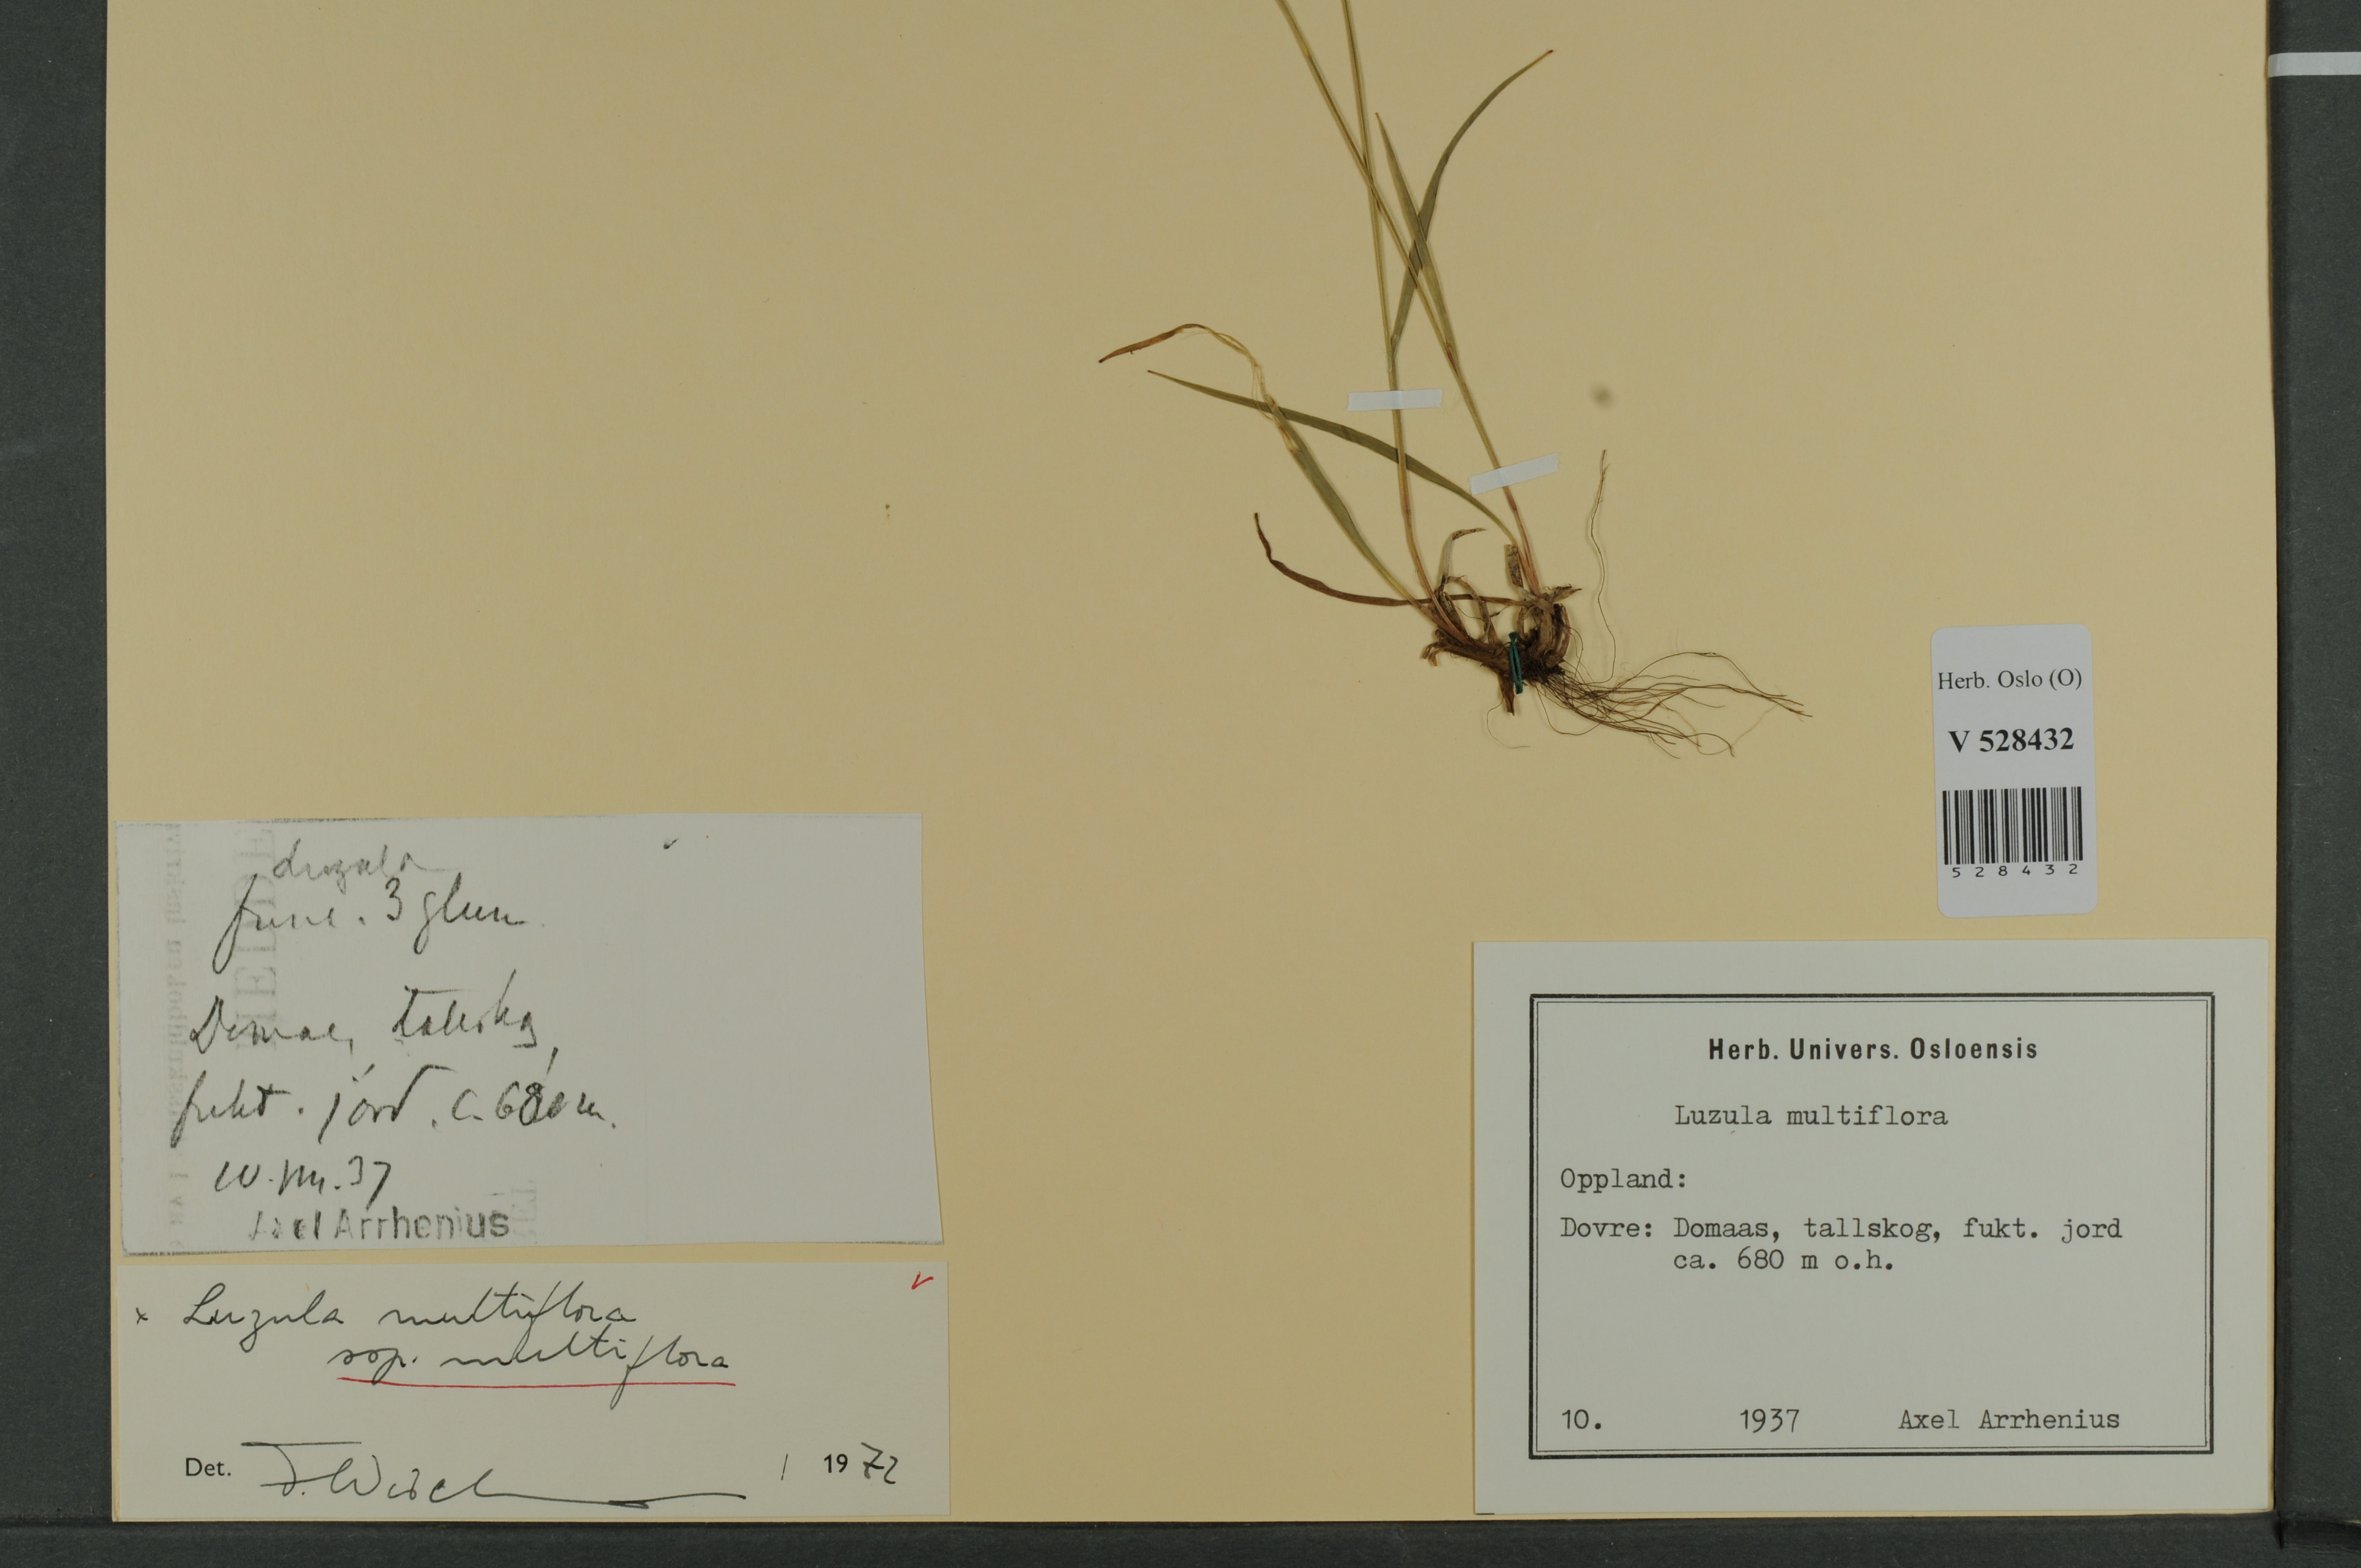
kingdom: Plantae
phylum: Tracheophyta
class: Liliopsida
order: Poales
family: Juncaceae
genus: Luzula
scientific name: Luzula multiflora
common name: Heath wood-rush
